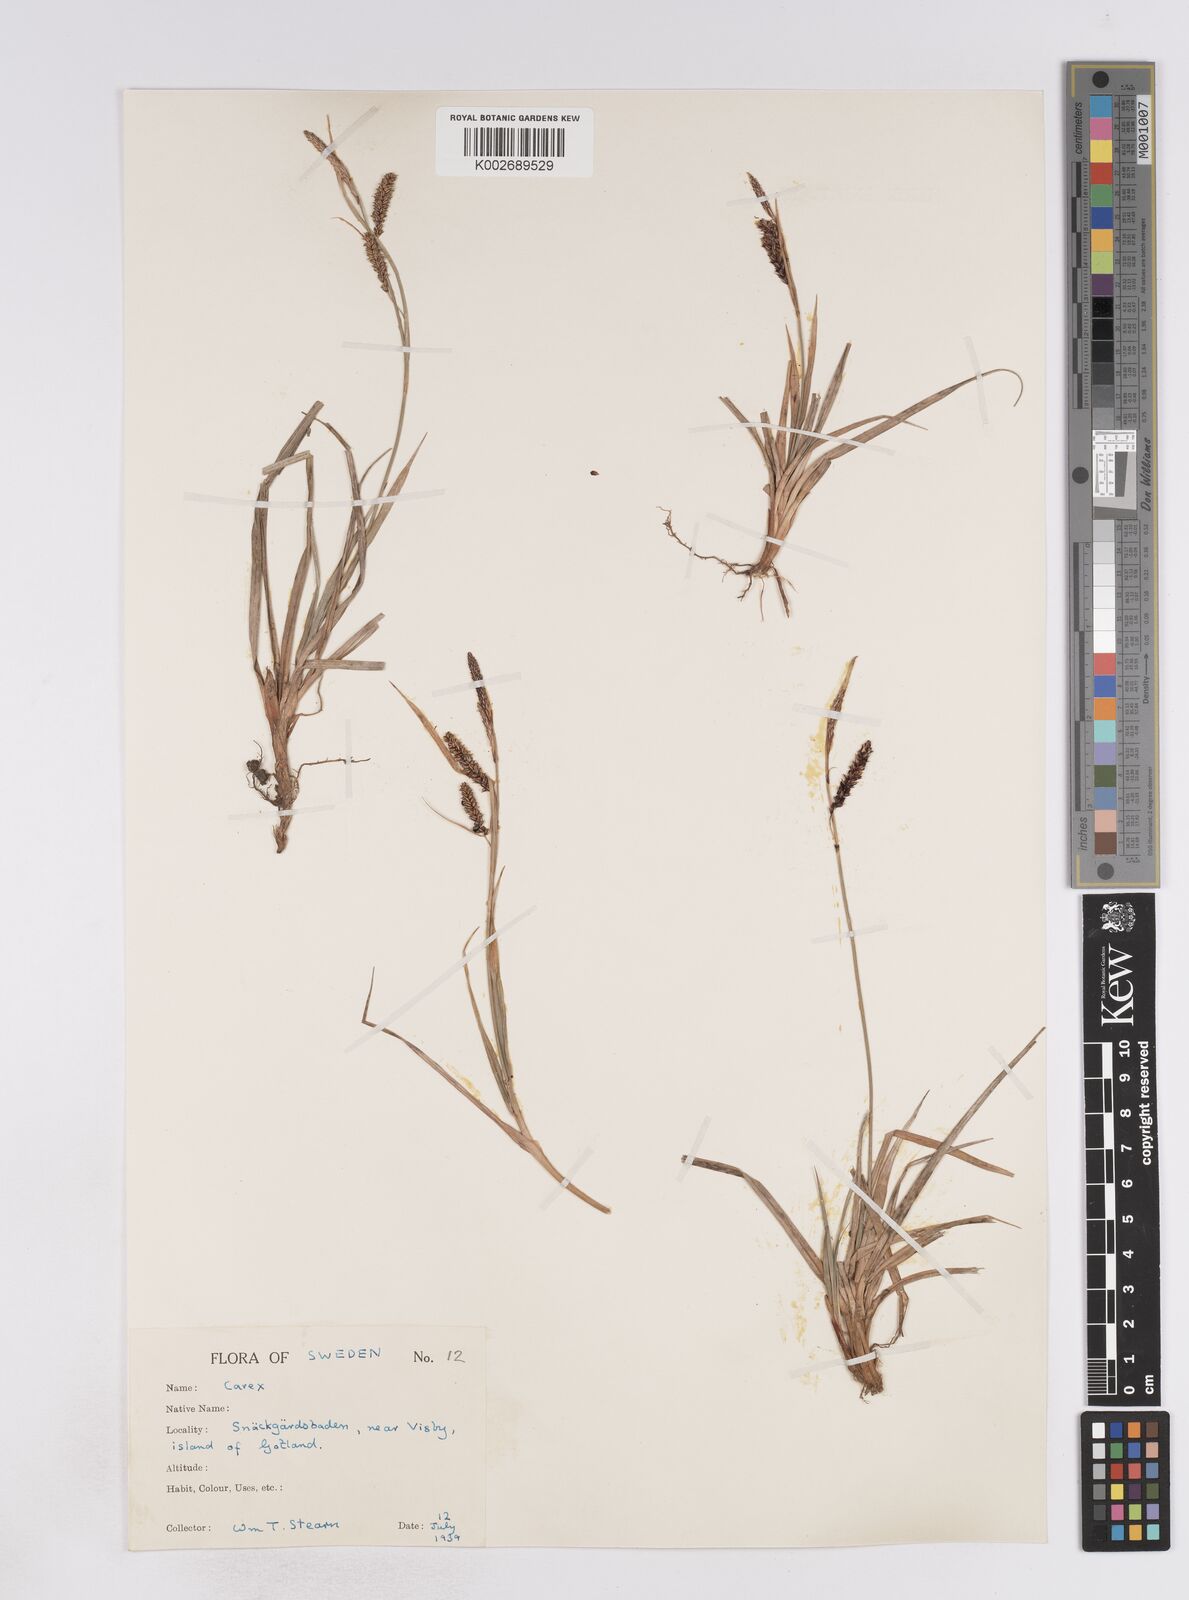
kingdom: Plantae
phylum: Tracheophyta
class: Liliopsida
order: Poales
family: Cyperaceae
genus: Carex
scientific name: Carex flacca
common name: Glaucous sedge
